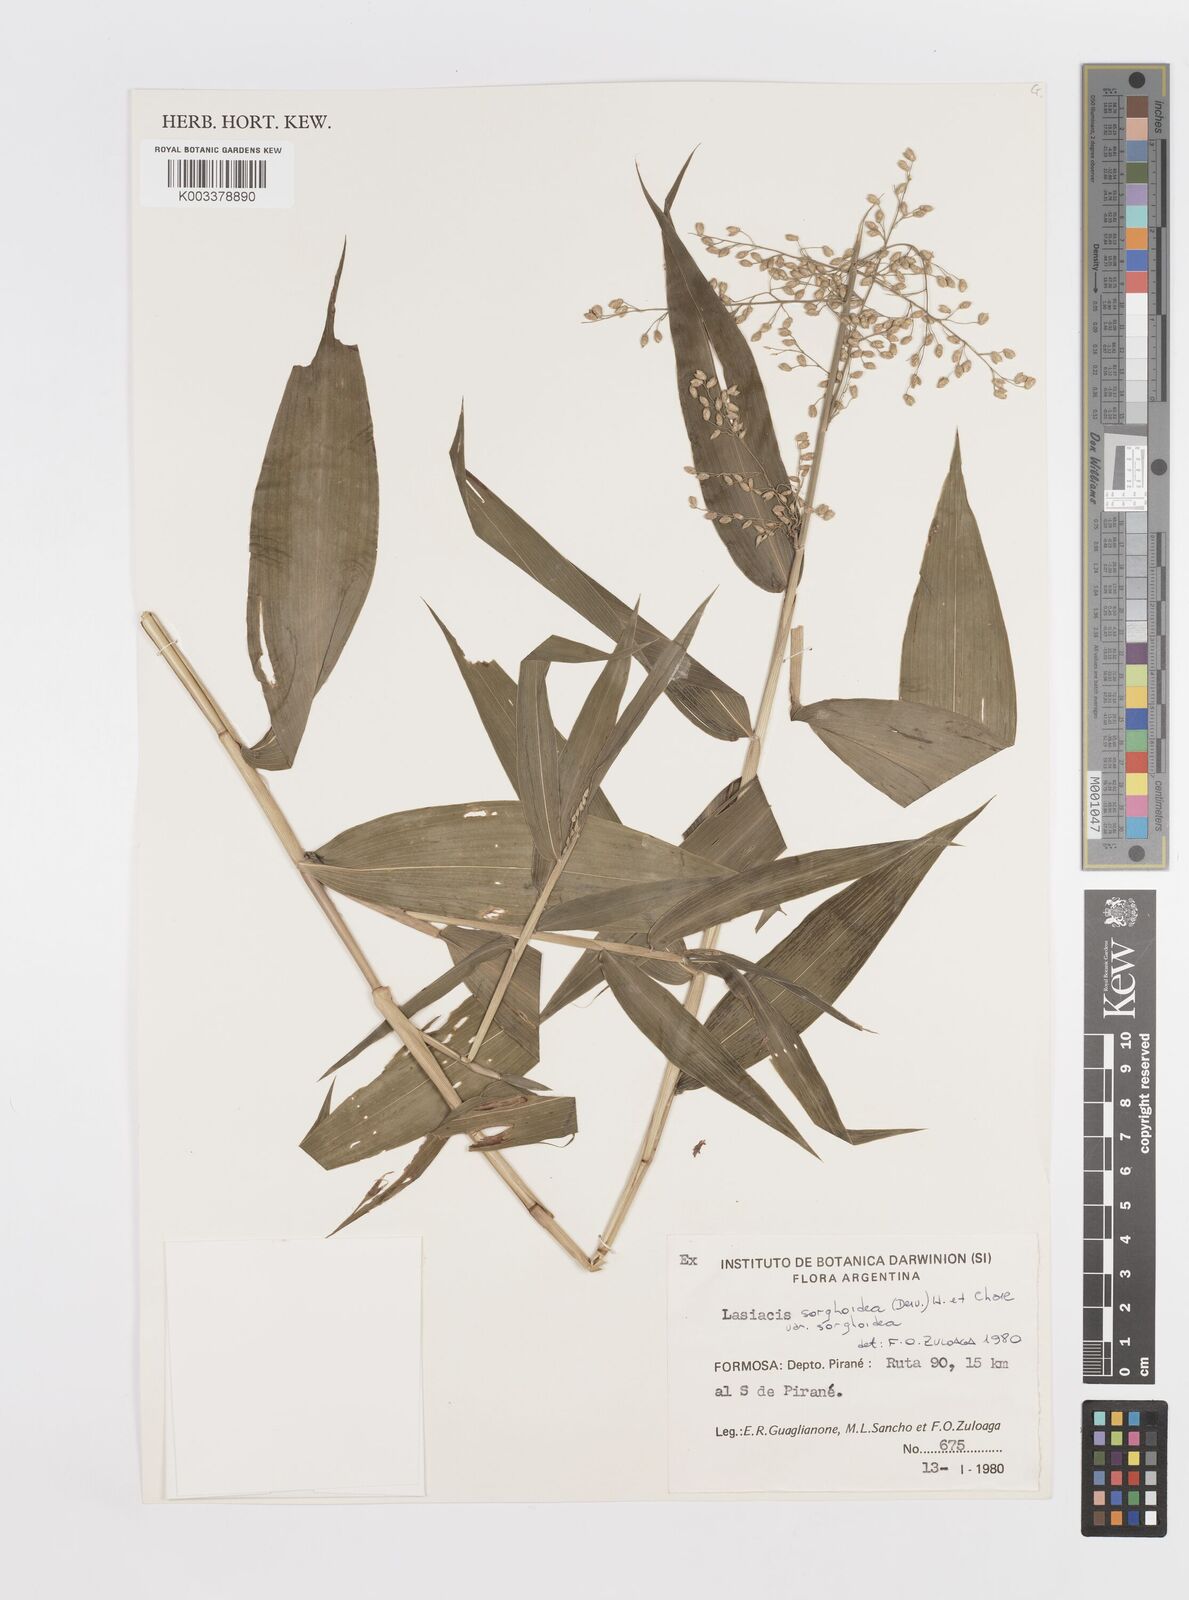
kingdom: Plantae
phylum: Tracheophyta
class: Liliopsida
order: Poales
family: Poaceae
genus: Lasiacis
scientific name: Lasiacis maculata
